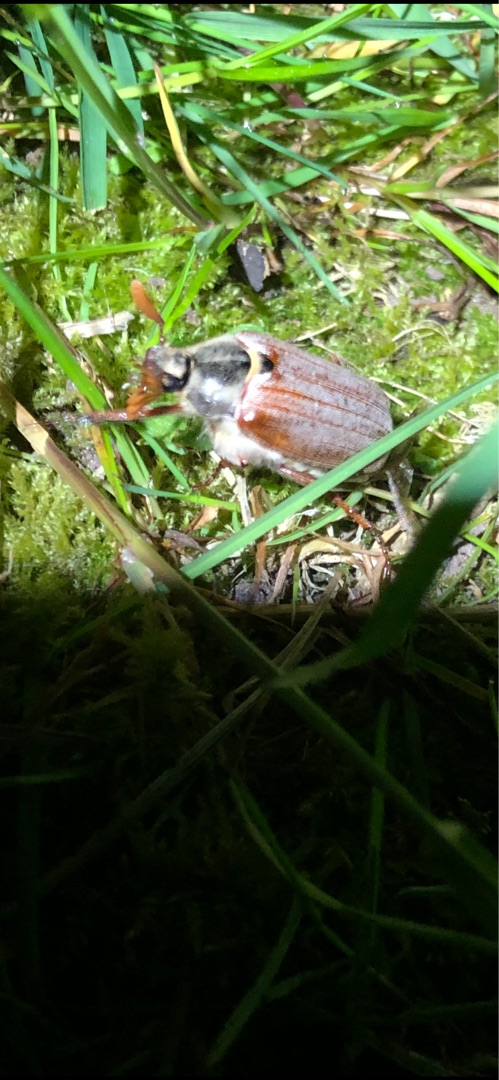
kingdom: Animalia
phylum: Arthropoda
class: Insecta
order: Coleoptera
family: Scarabaeidae
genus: Melolontha
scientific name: Melolontha melolontha
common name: Almindelig oldenborre
